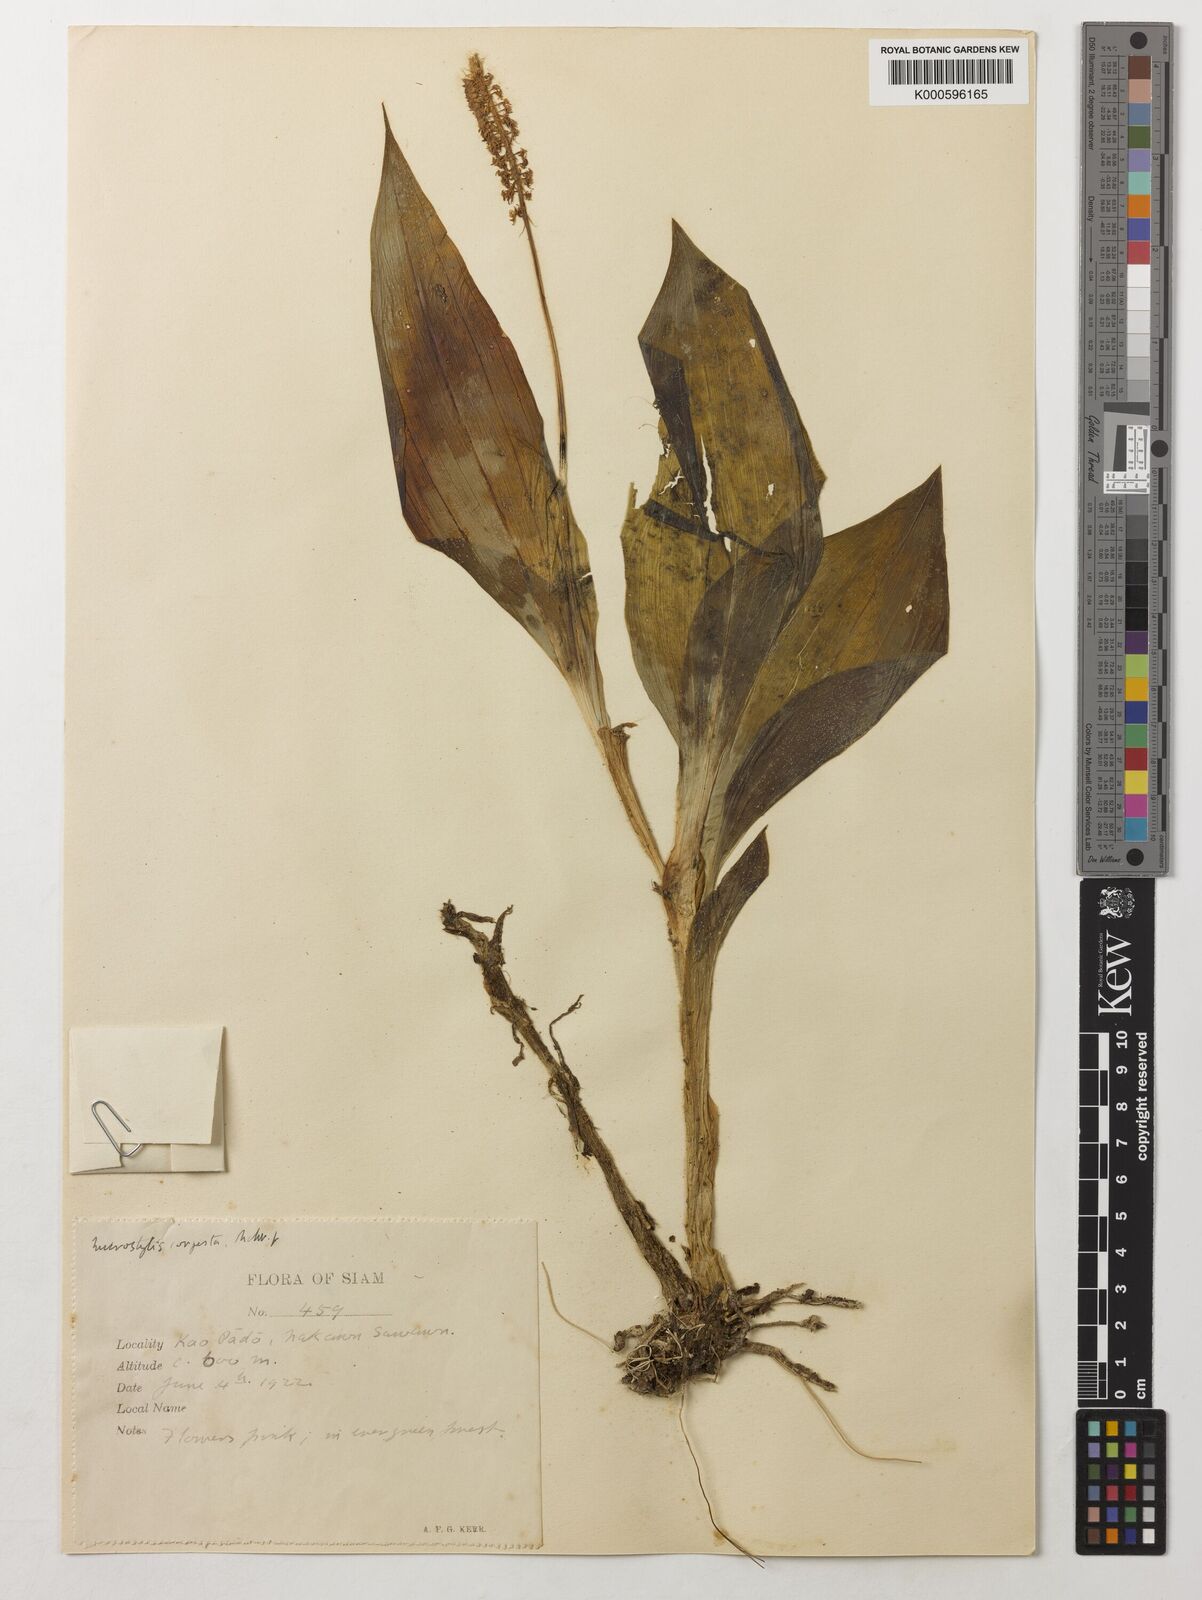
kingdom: Plantae
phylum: Tracheophyta
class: Liliopsida
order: Asparagales
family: Orchidaceae
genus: Dienia
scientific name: Dienia ophrydis
